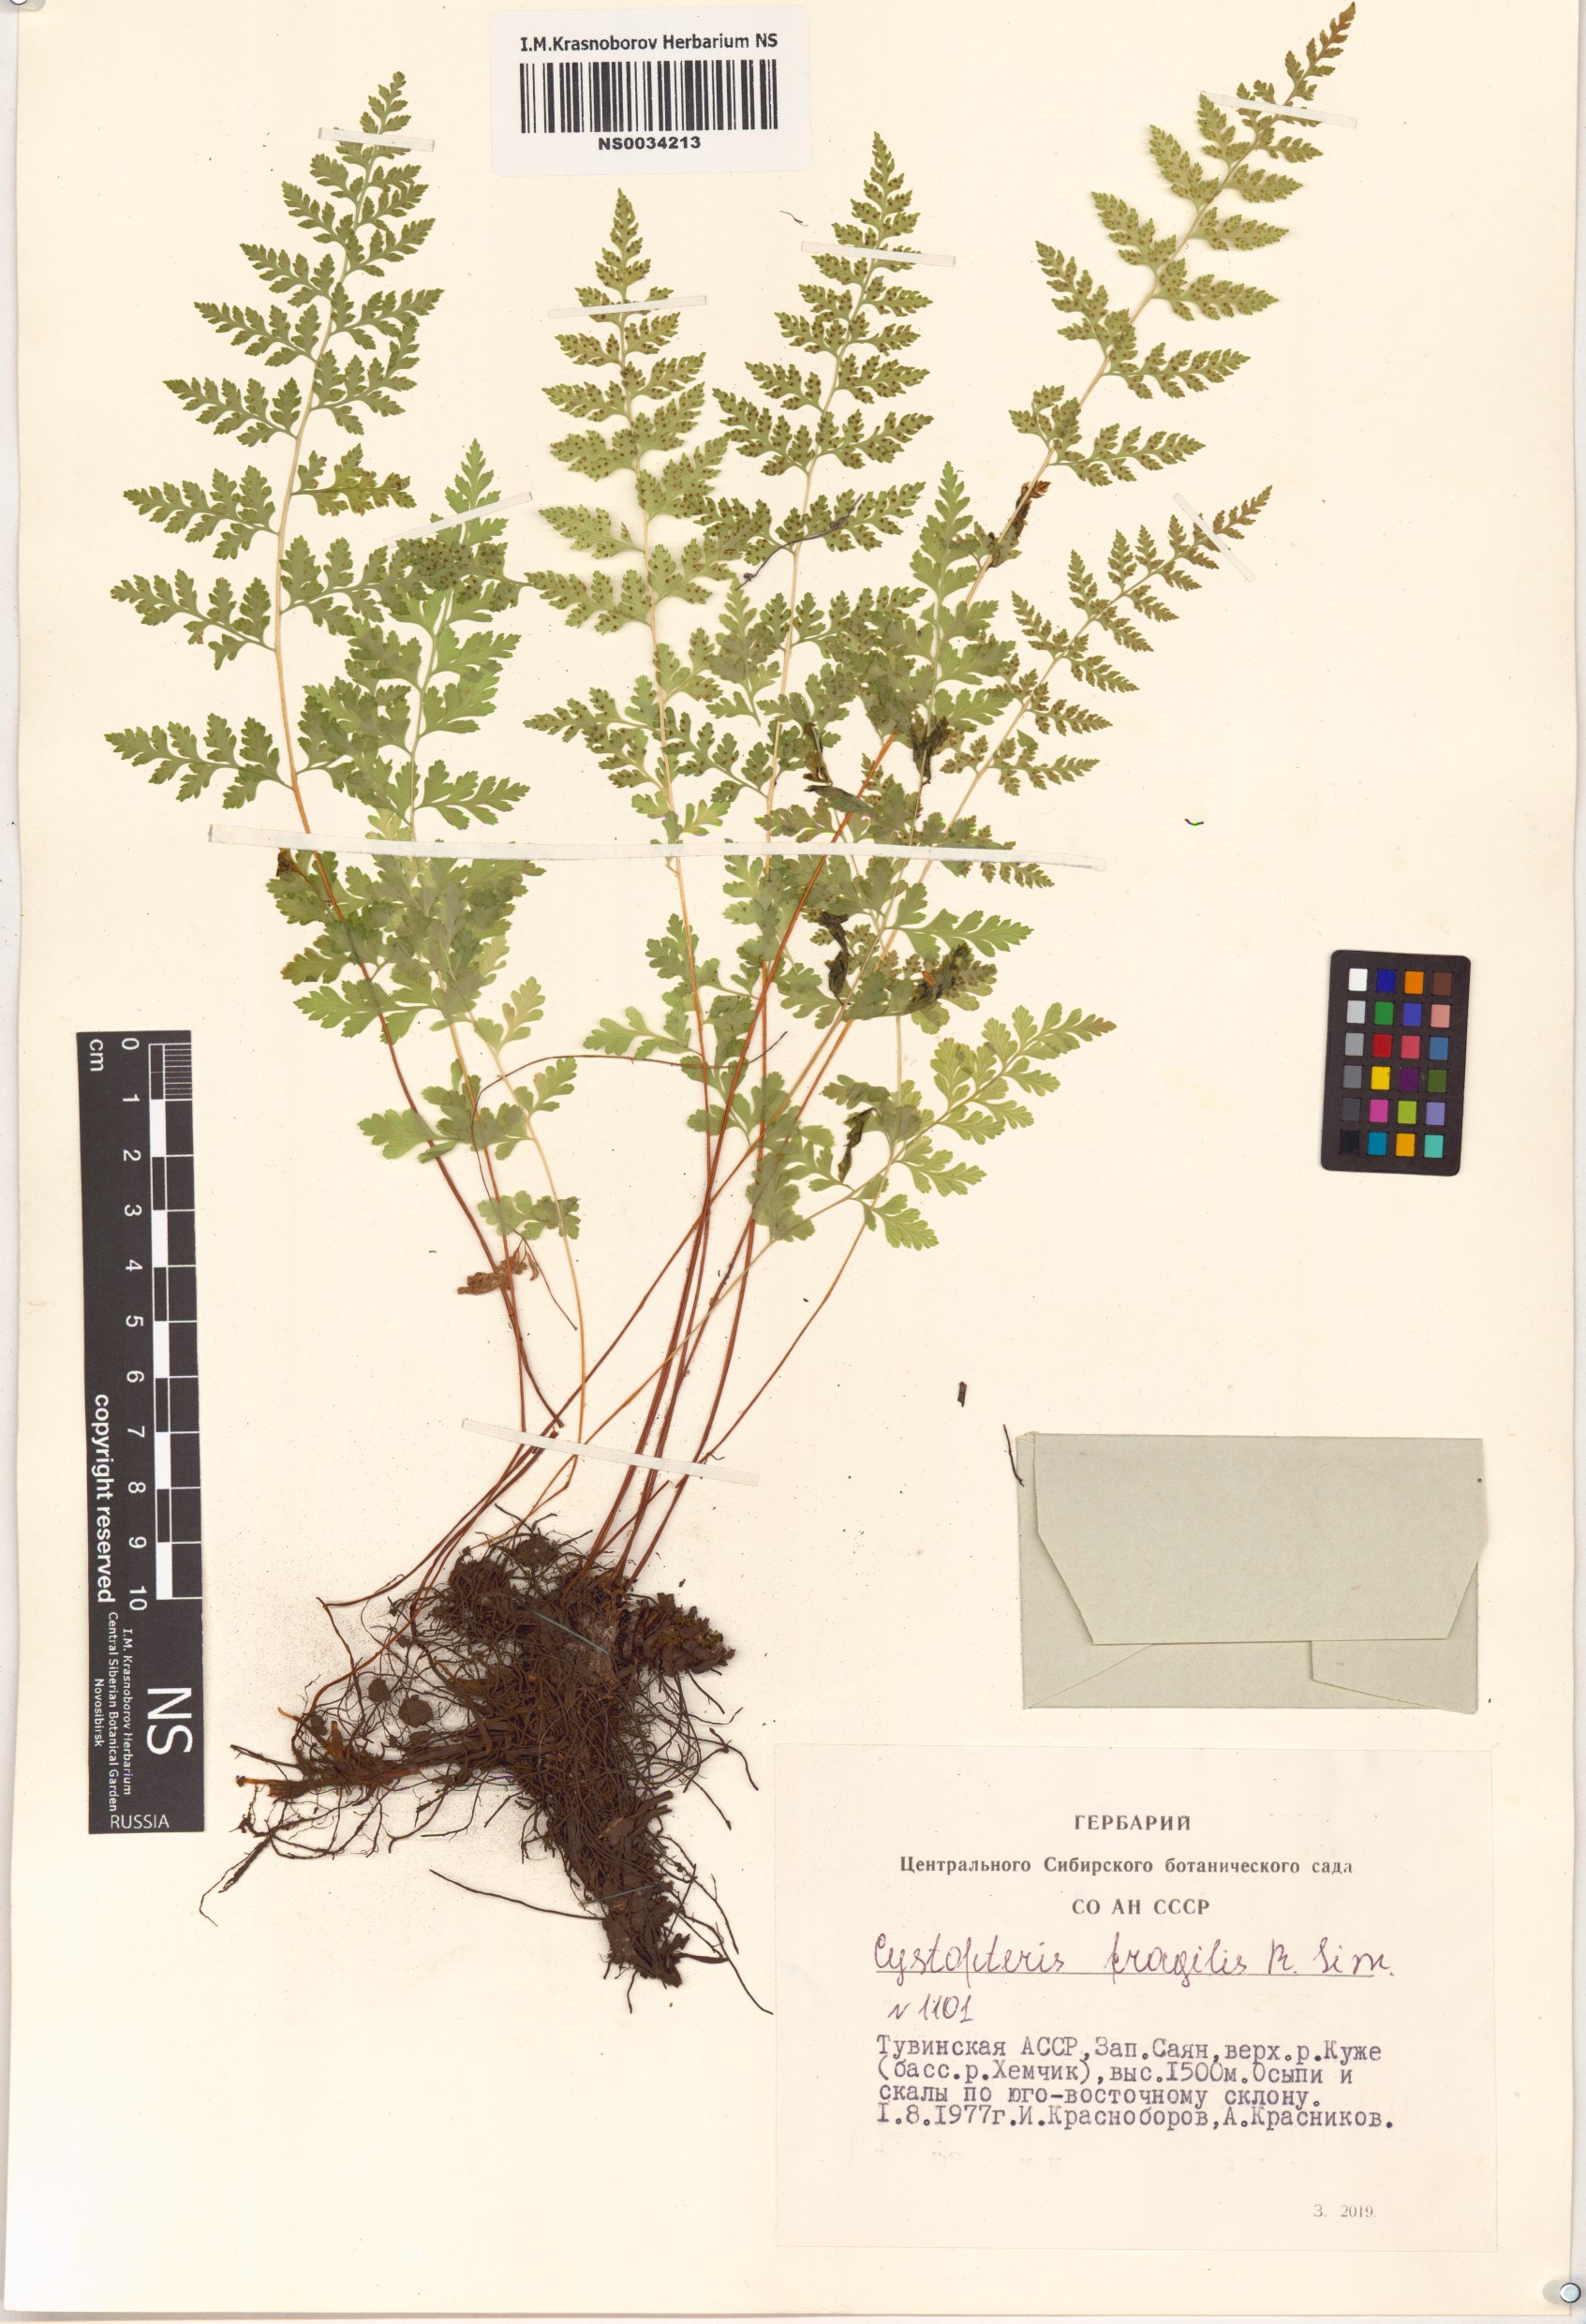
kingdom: Plantae
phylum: Tracheophyta
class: Polypodiopsida
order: Polypodiales
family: Cystopteridaceae
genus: Cystopteris
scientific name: Cystopteris fragilis
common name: Brittle bladder fern
